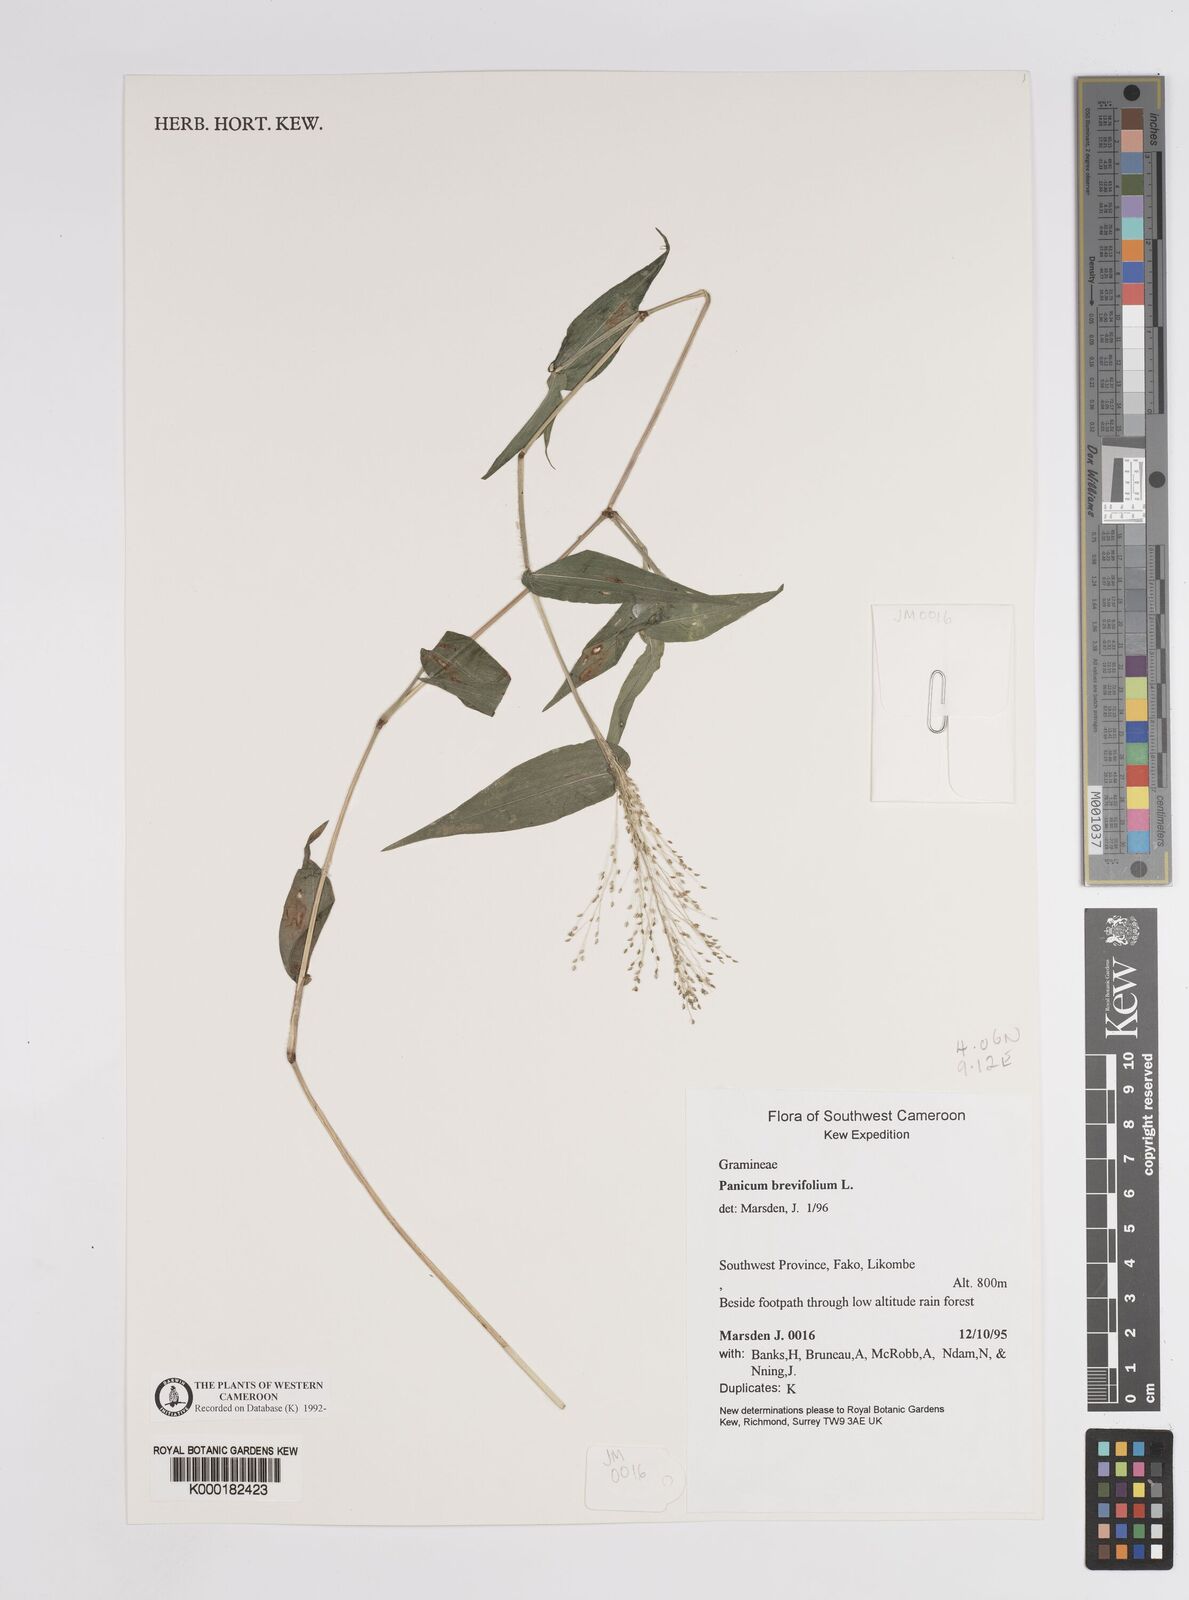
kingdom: Plantae
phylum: Tracheophyta
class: Liliopsida
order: Poales
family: Poaceae
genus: Panicum
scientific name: Panicum brevifolium
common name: Shortleaf panic grass
